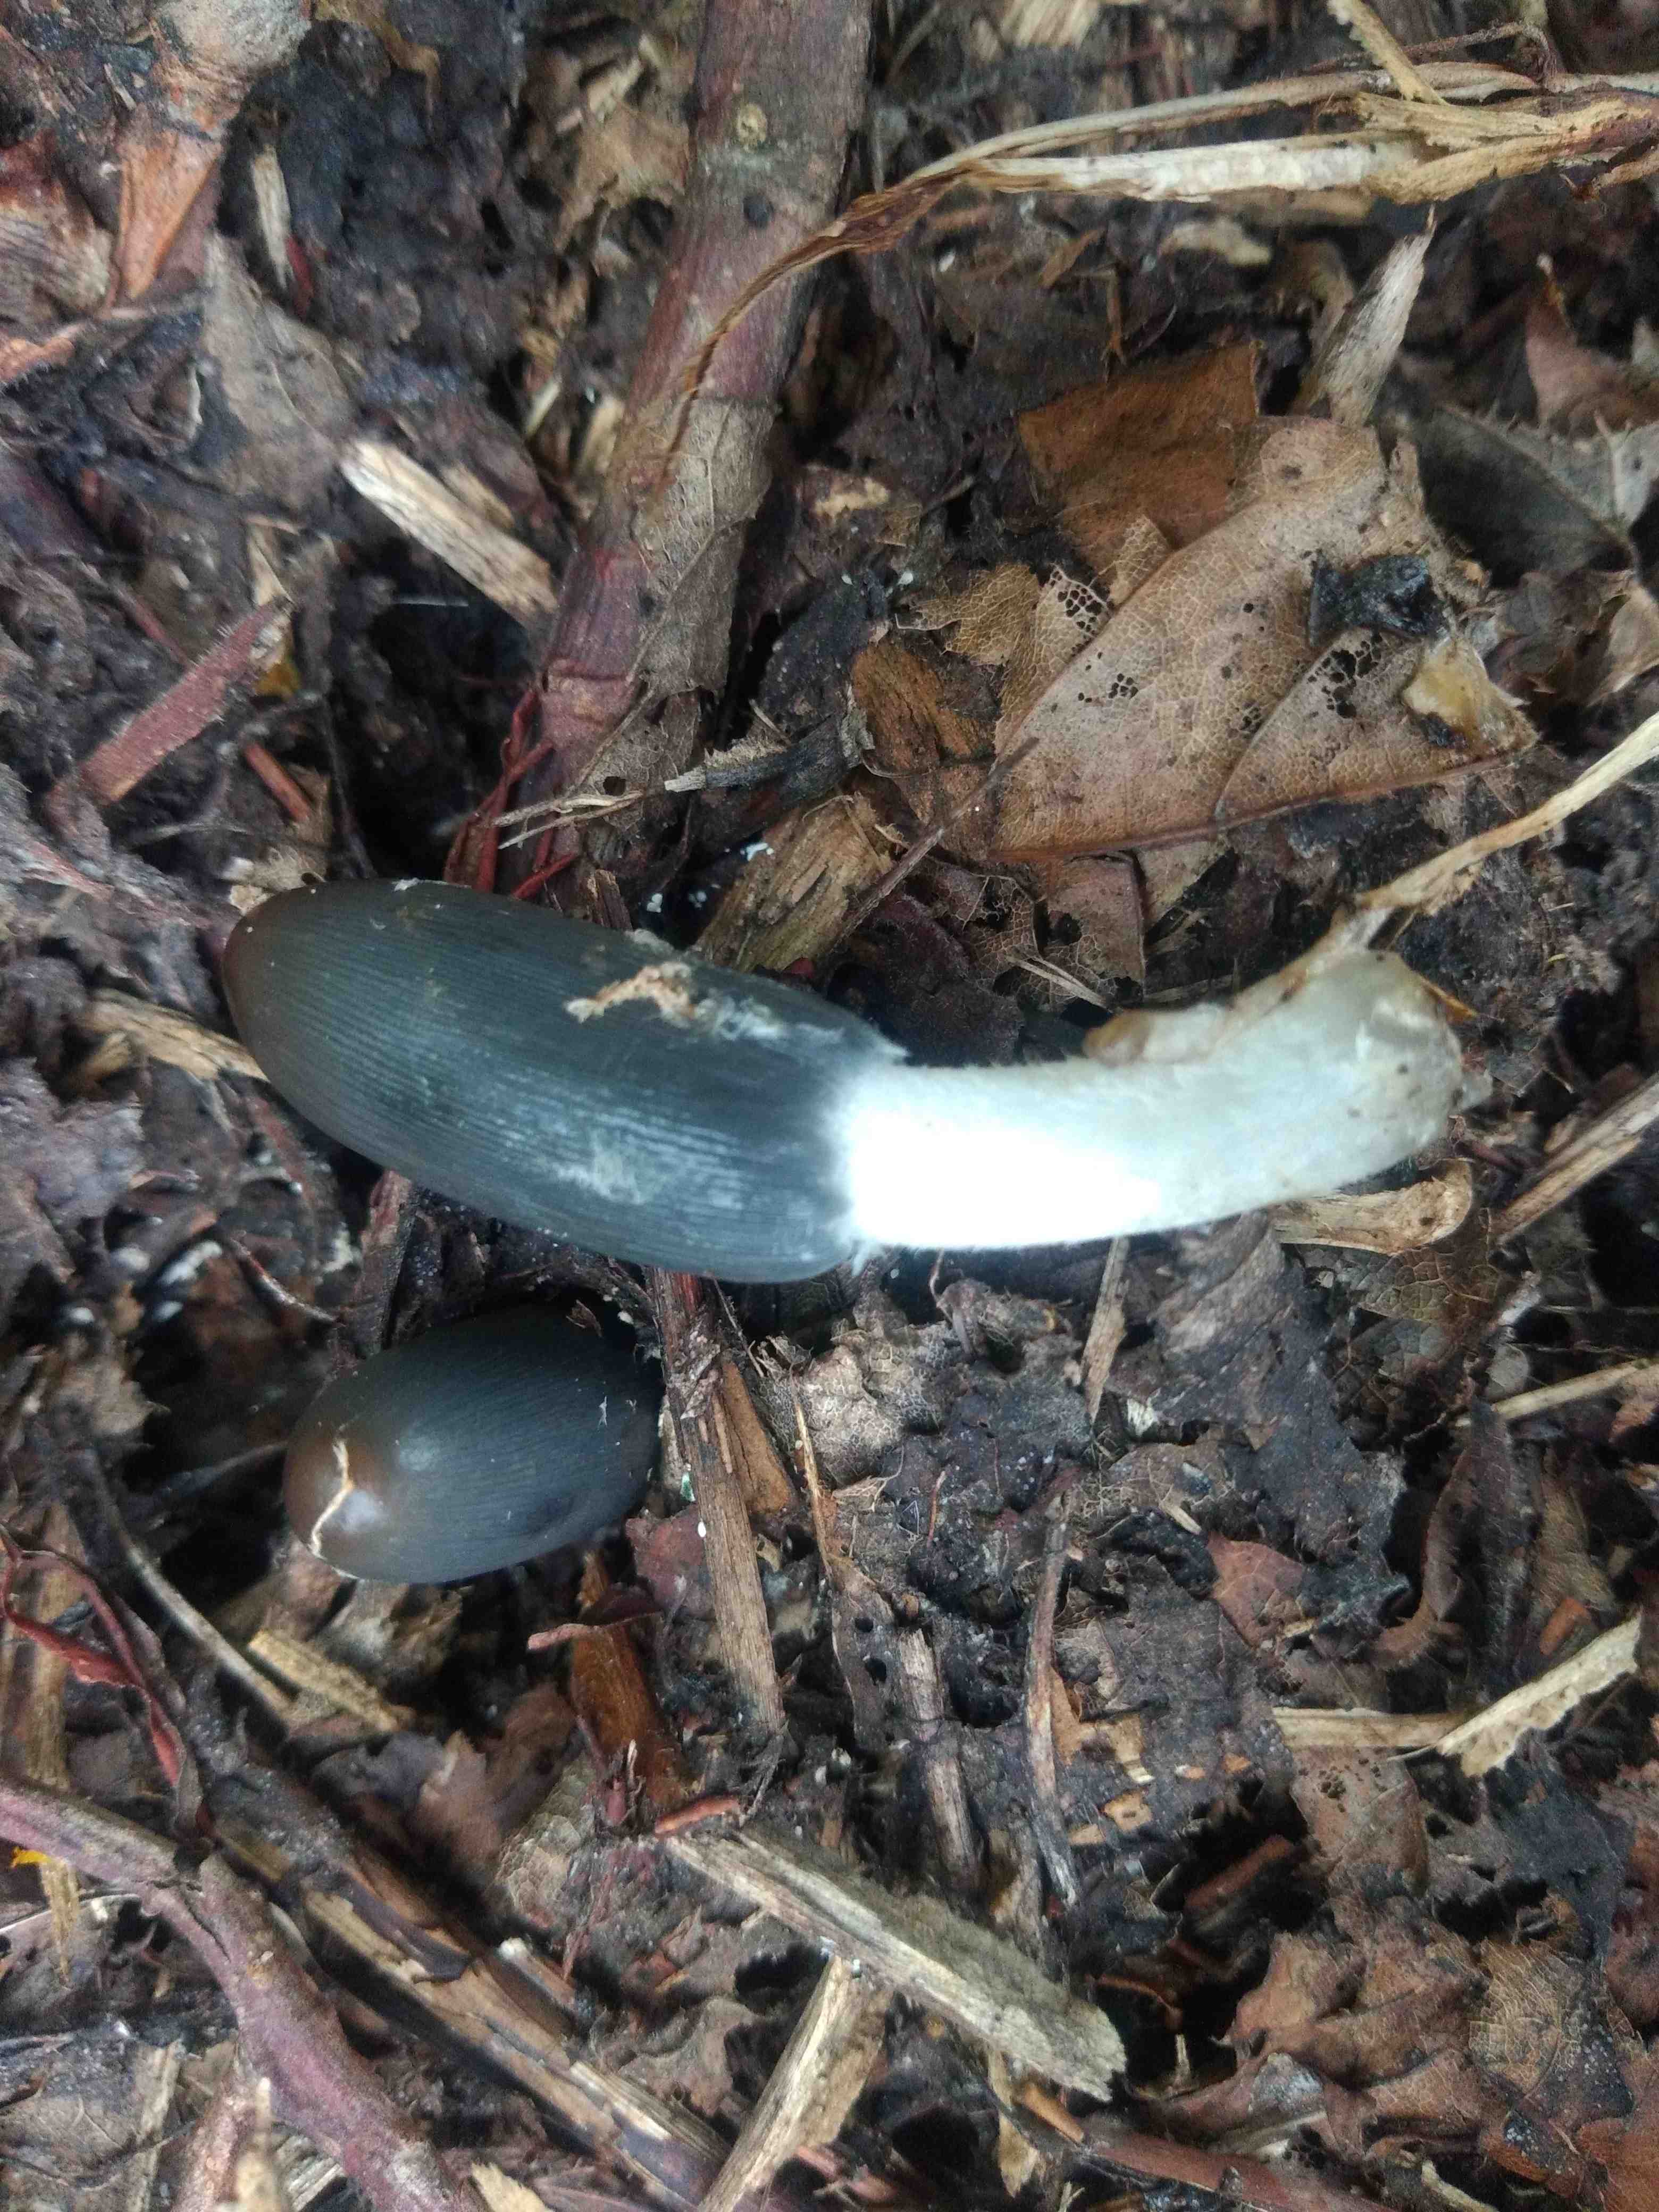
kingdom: Fungi
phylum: Basidiomycota
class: Agaricomycetes
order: Agaricales
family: Psathyrellaceae
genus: Coprinopsis
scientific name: Coprinopsis
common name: blækhat
